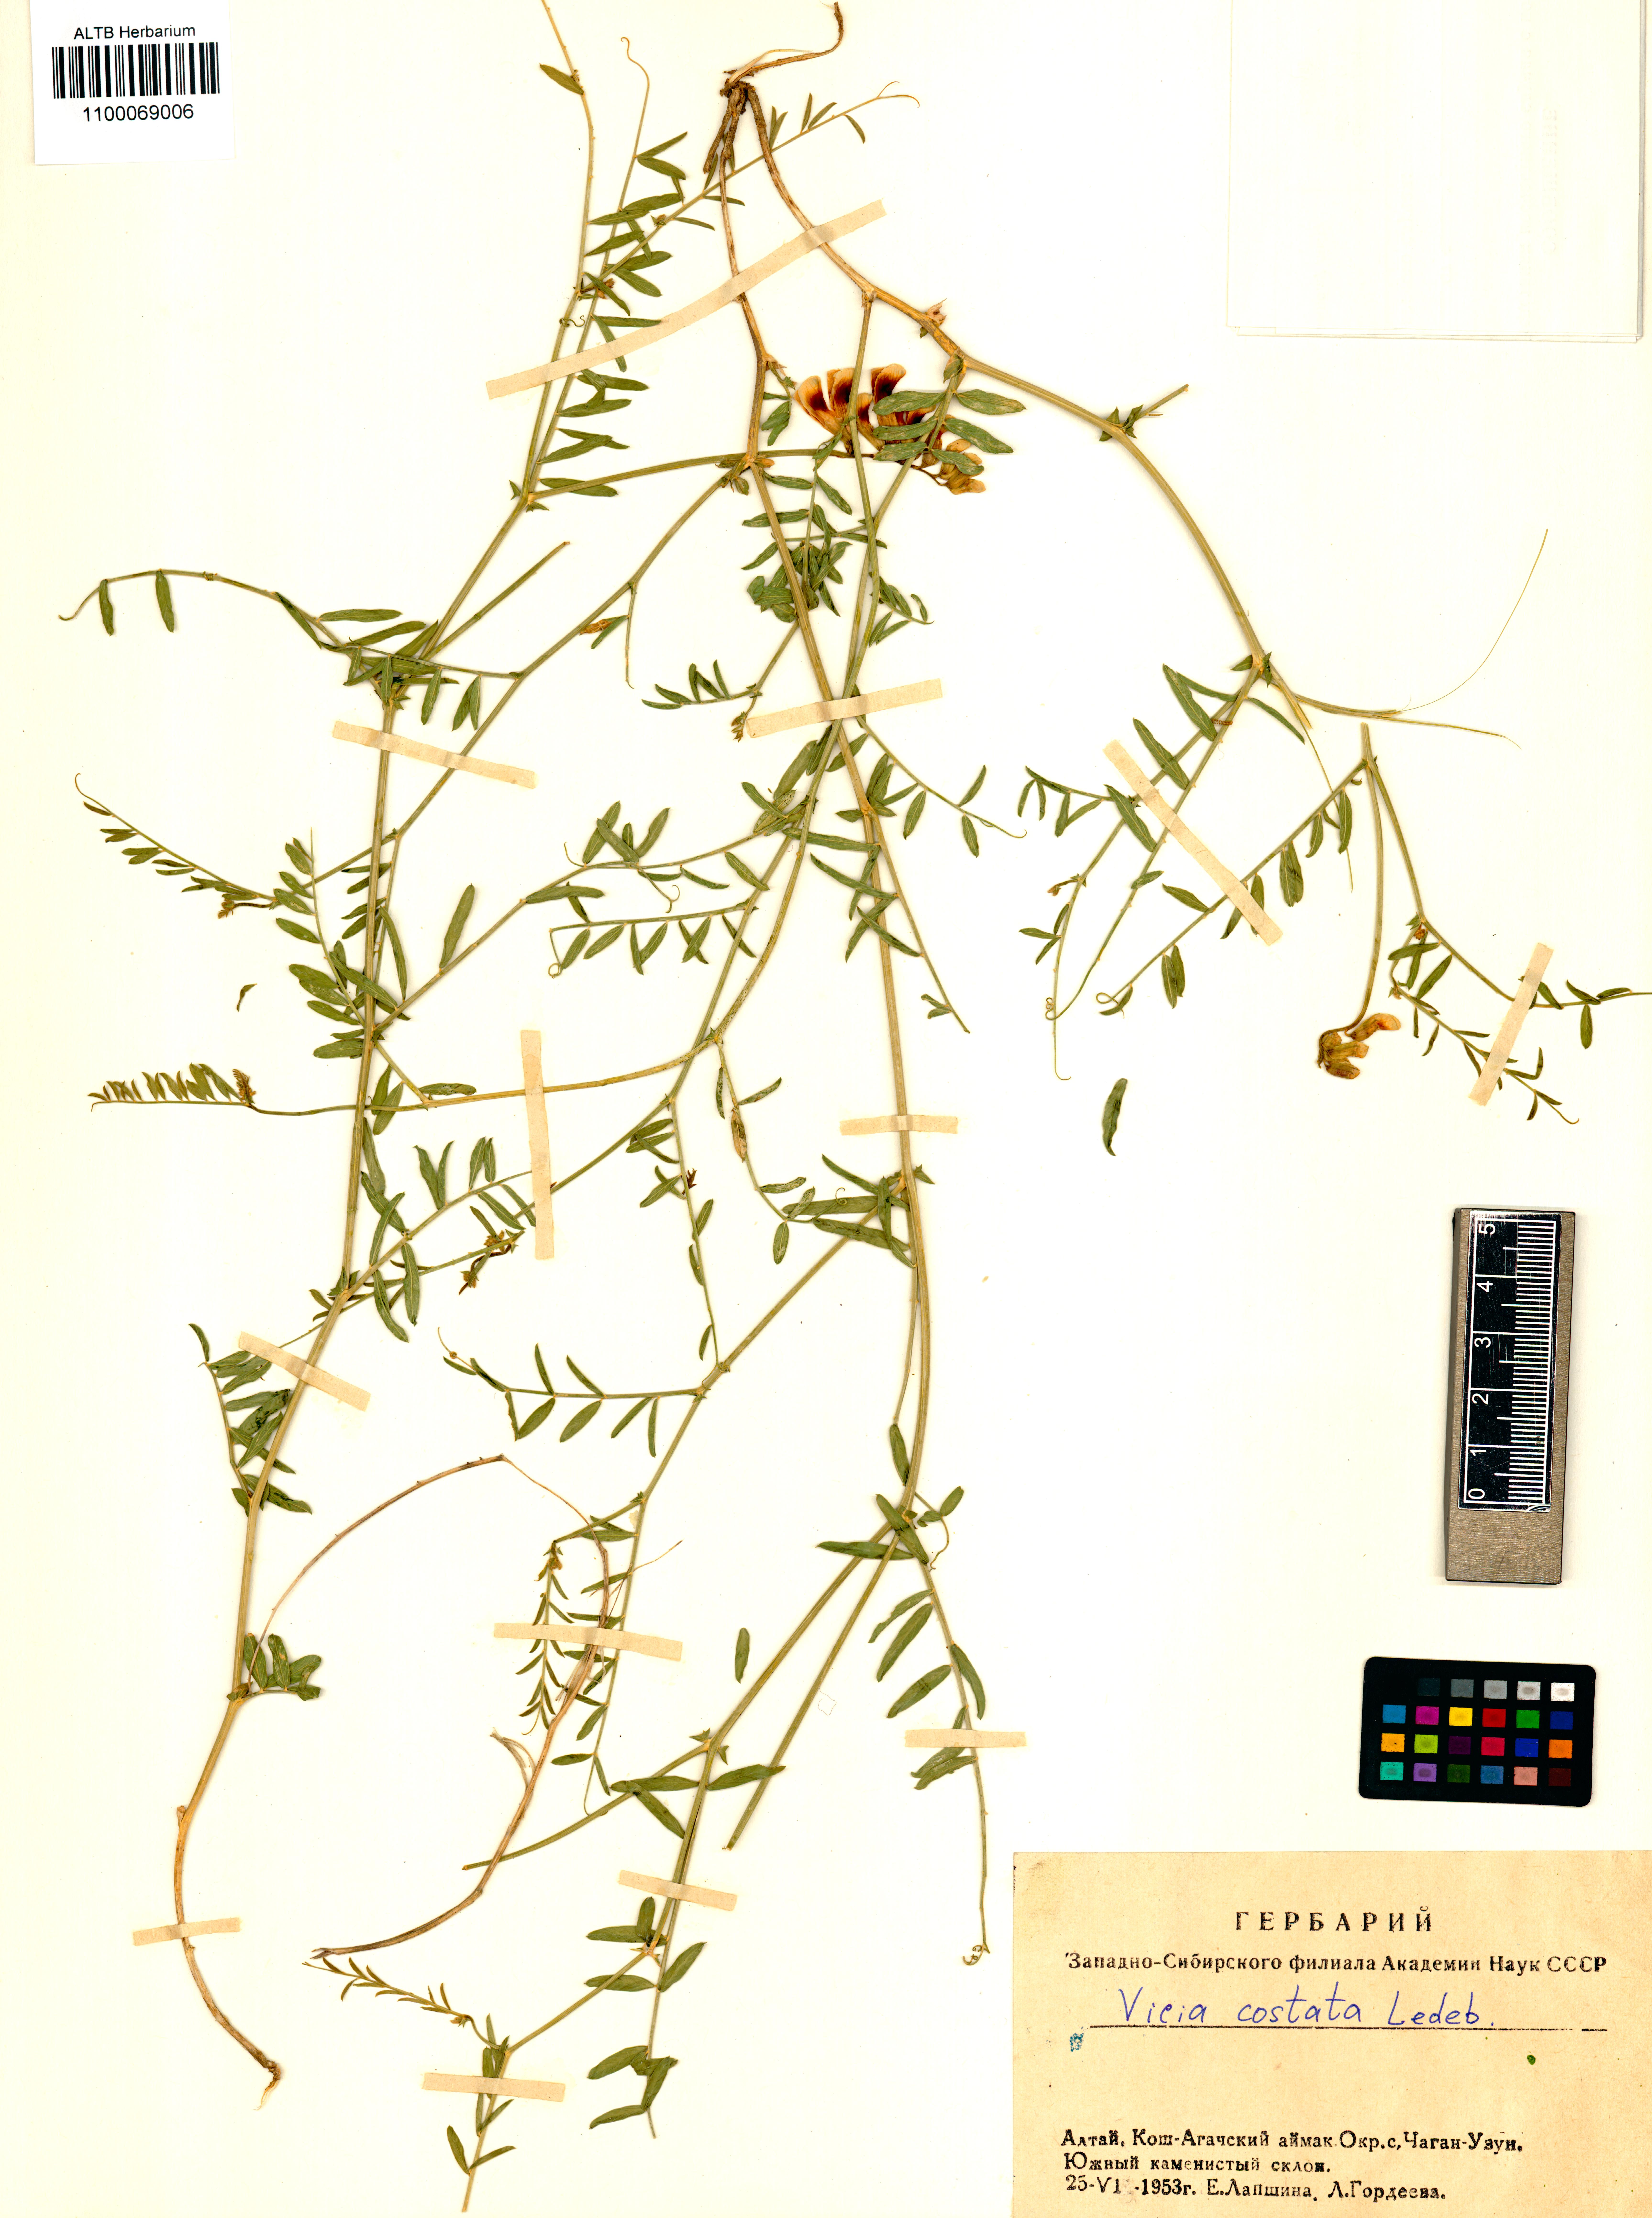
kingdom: Plantae
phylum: Tracheophyta
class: Magnoliopsida
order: Fabales
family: Fabaceae
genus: Vicia
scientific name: Vicia costata
